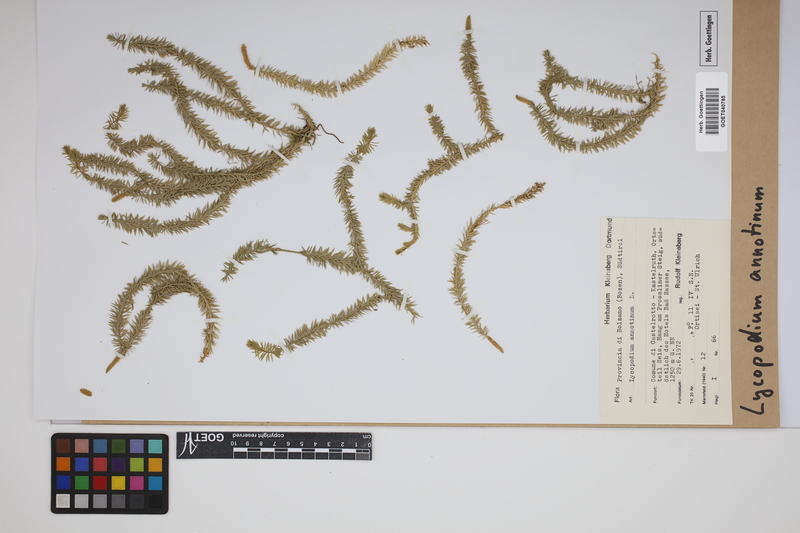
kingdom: Plantae
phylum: Tracheophyta
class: Lycopodiopsida
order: Lycopodiales
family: Lycopodiaceae
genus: Spinulum
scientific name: Spinulum annotinum
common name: Interrupted club-moss
